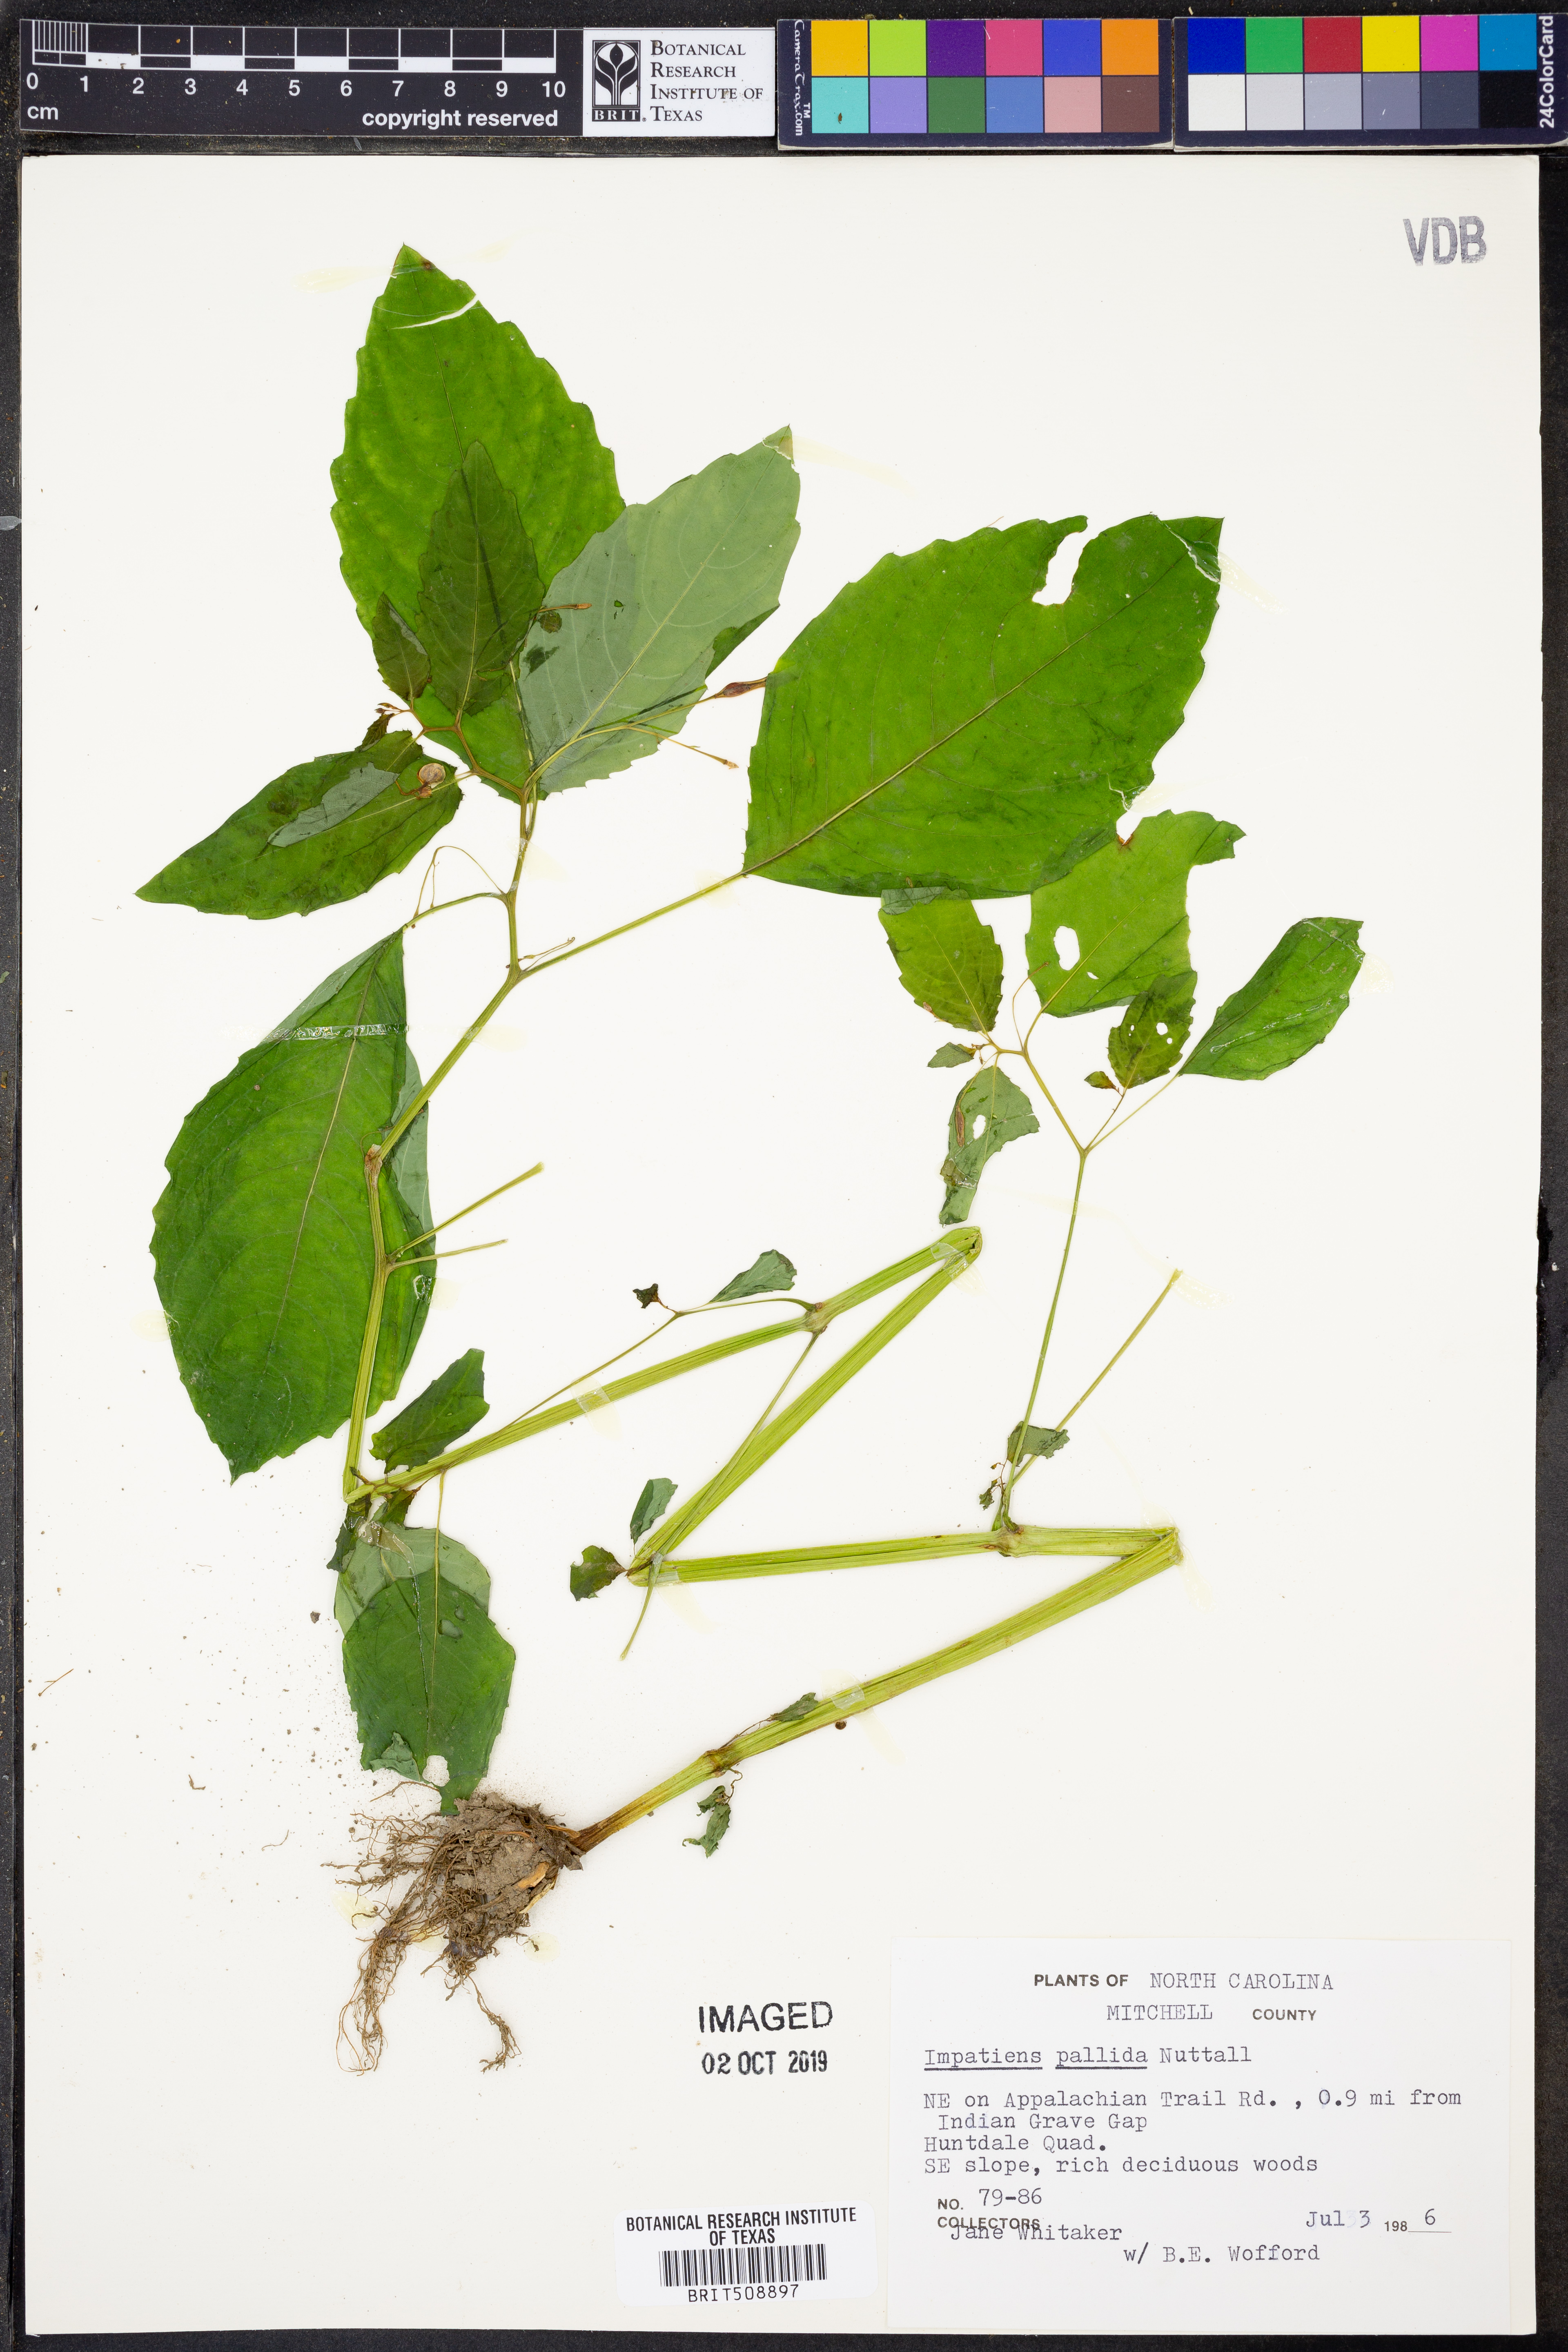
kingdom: Plantae
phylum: Tracheophyta
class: Magnoliopsida
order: Ericales
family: Balsaminaceae
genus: Impatiens
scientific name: Impatiens pallida
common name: Pale snapweed
